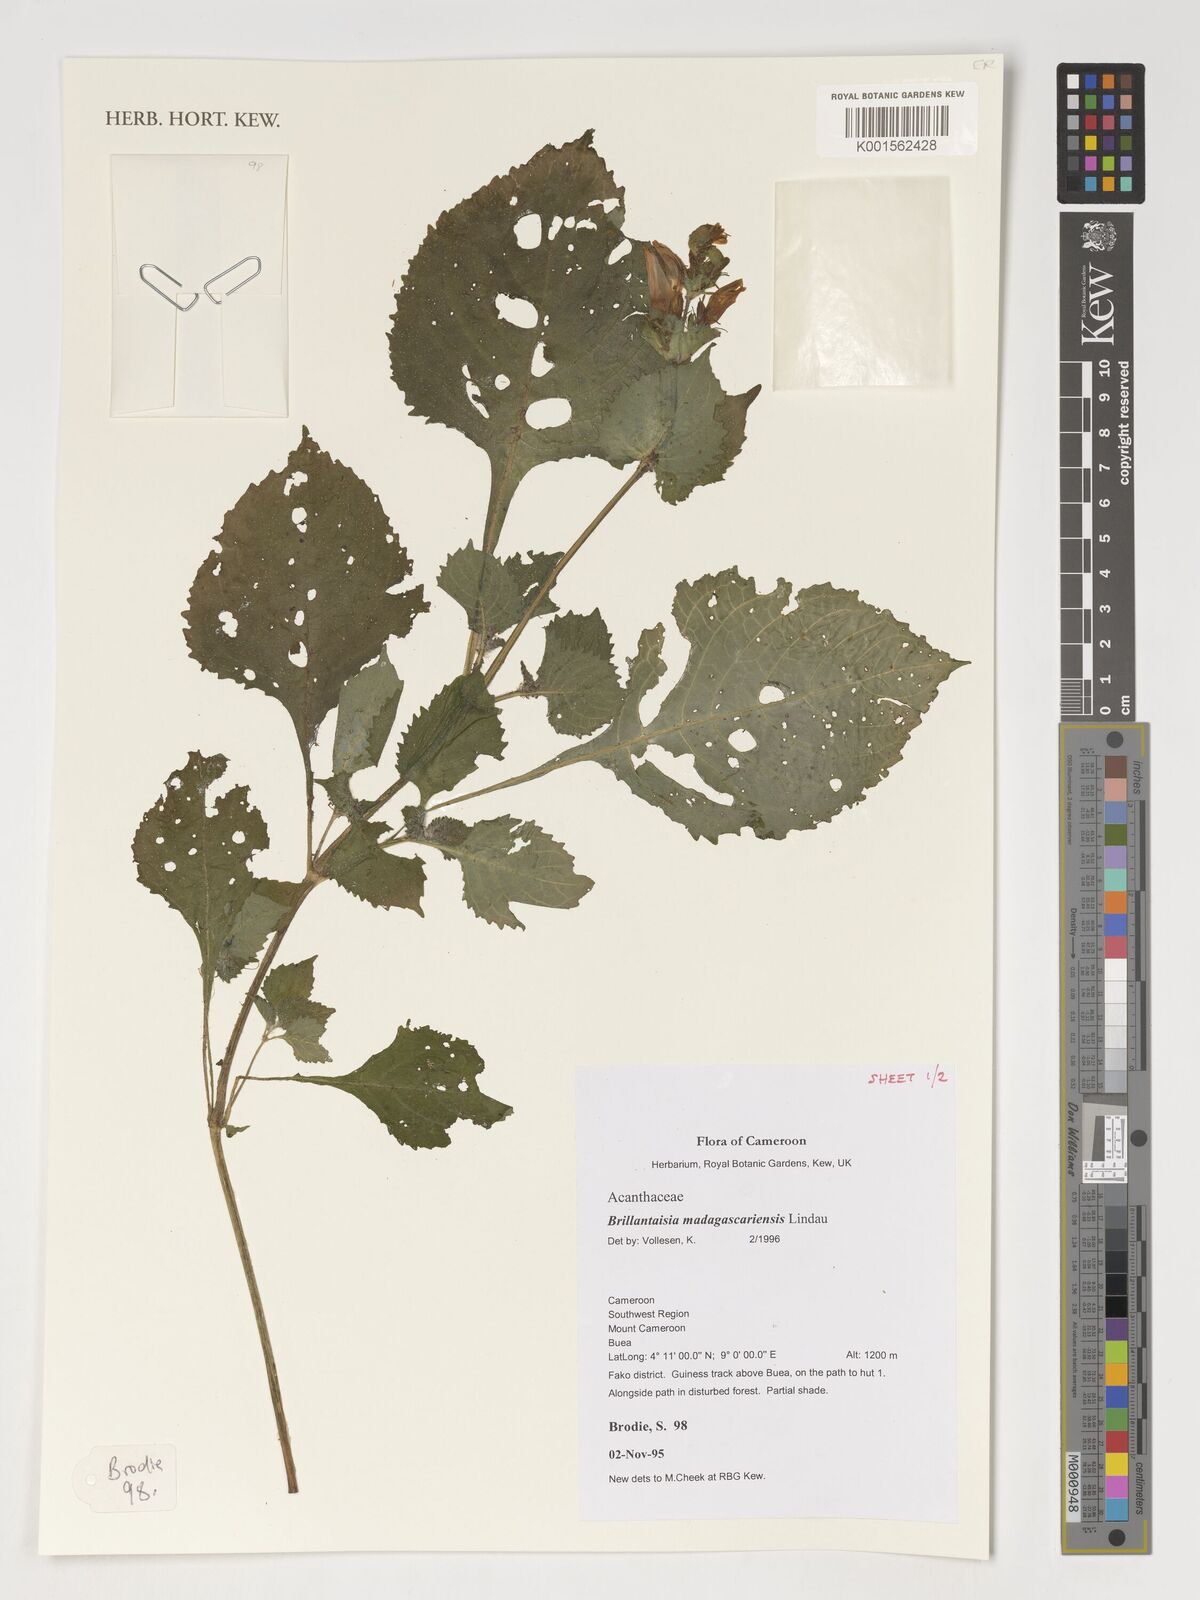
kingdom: Plantae
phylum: Tracheophyta
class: Magnoliopsida
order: Lamiales
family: Acanthaceae
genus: Brillantaisia
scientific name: Brillantaisia madagascariensis
